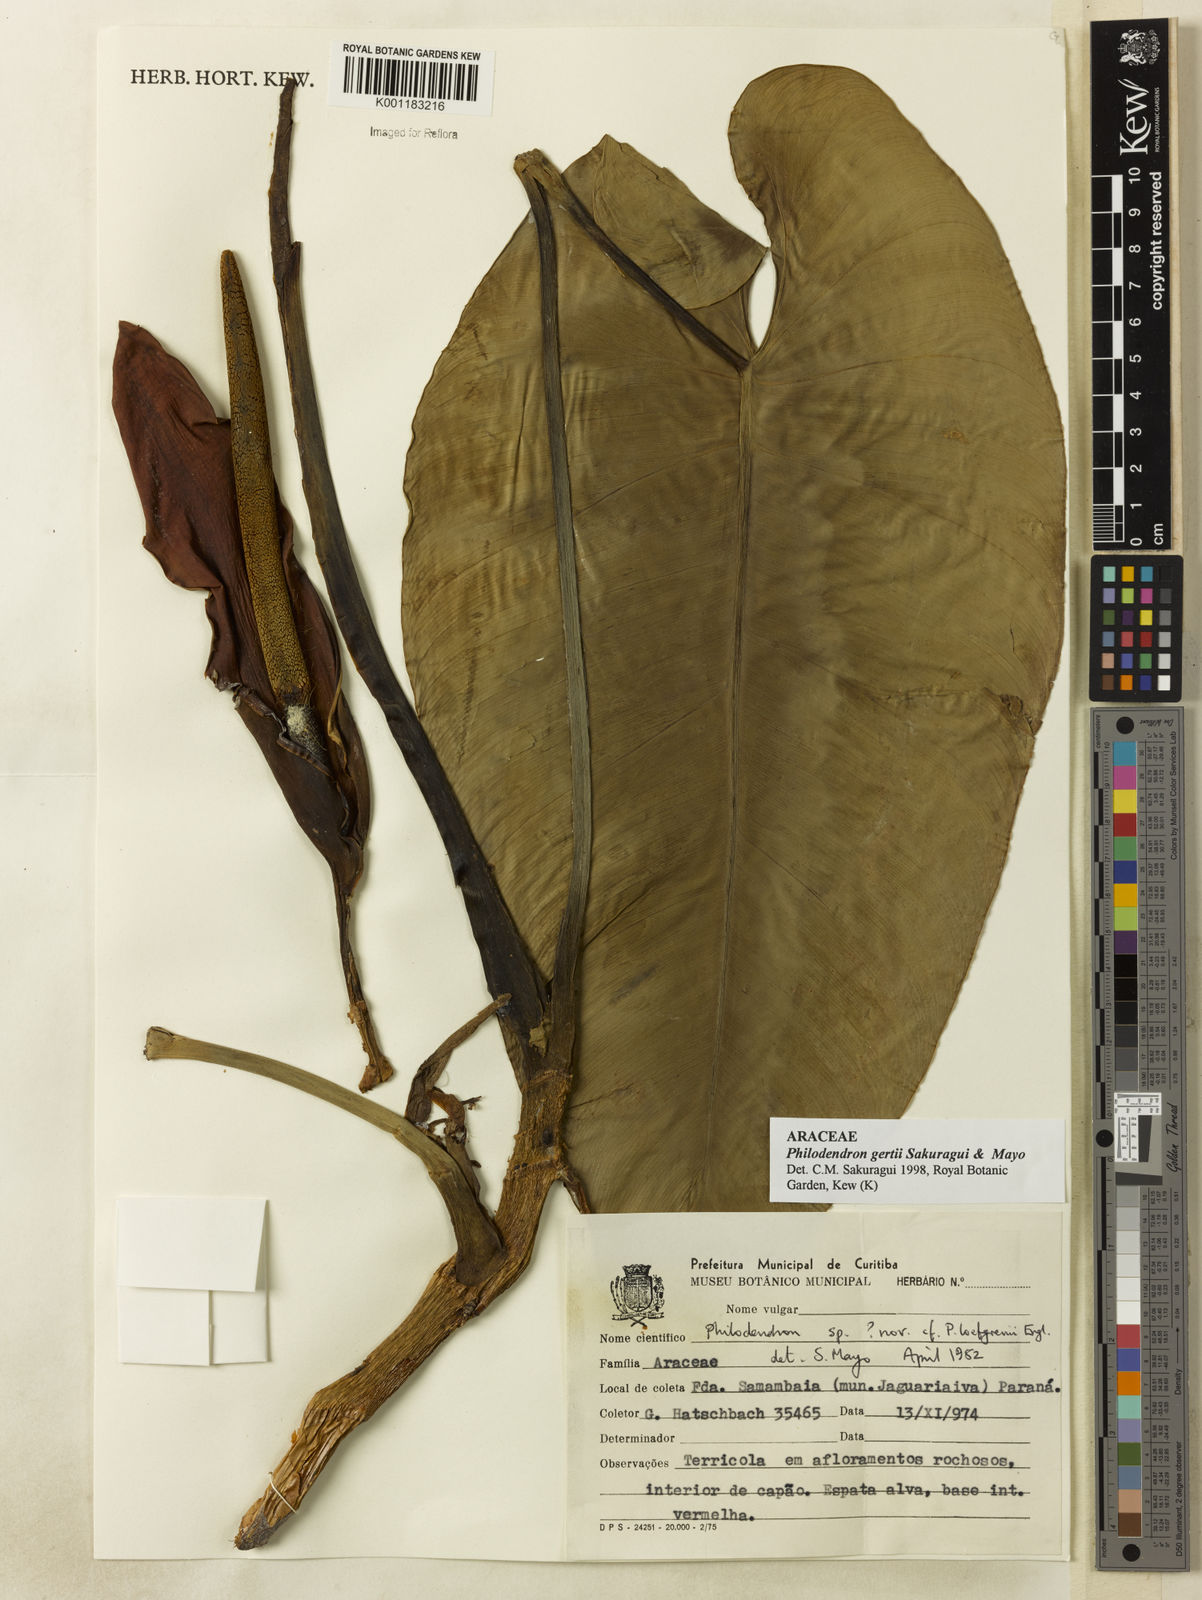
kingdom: Plantae
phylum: Tracheophyta
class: Liliopsida
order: Alismatales
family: Araceae
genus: Philodendron
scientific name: Philodendron
